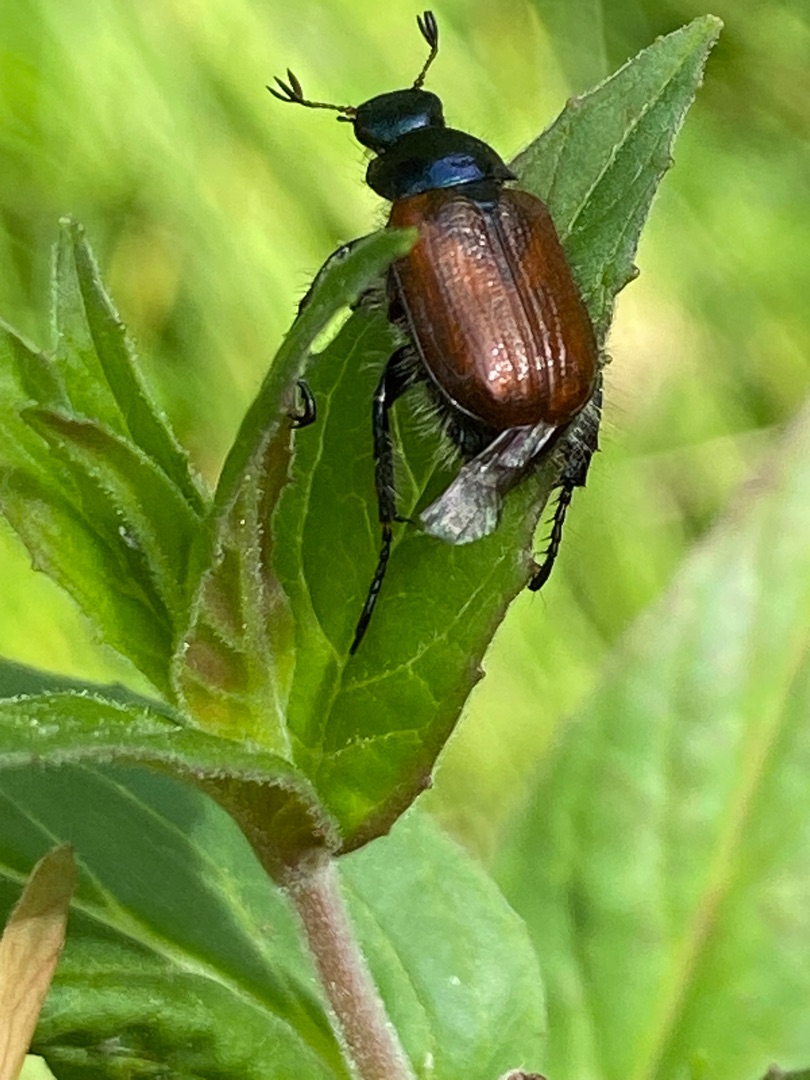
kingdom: Animalia
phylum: Arthropoda
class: Insecta
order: Coleoptera
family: Scarabaeidae
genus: Phyllopertha
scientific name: Phyllopertha horticola
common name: Gåsebille
